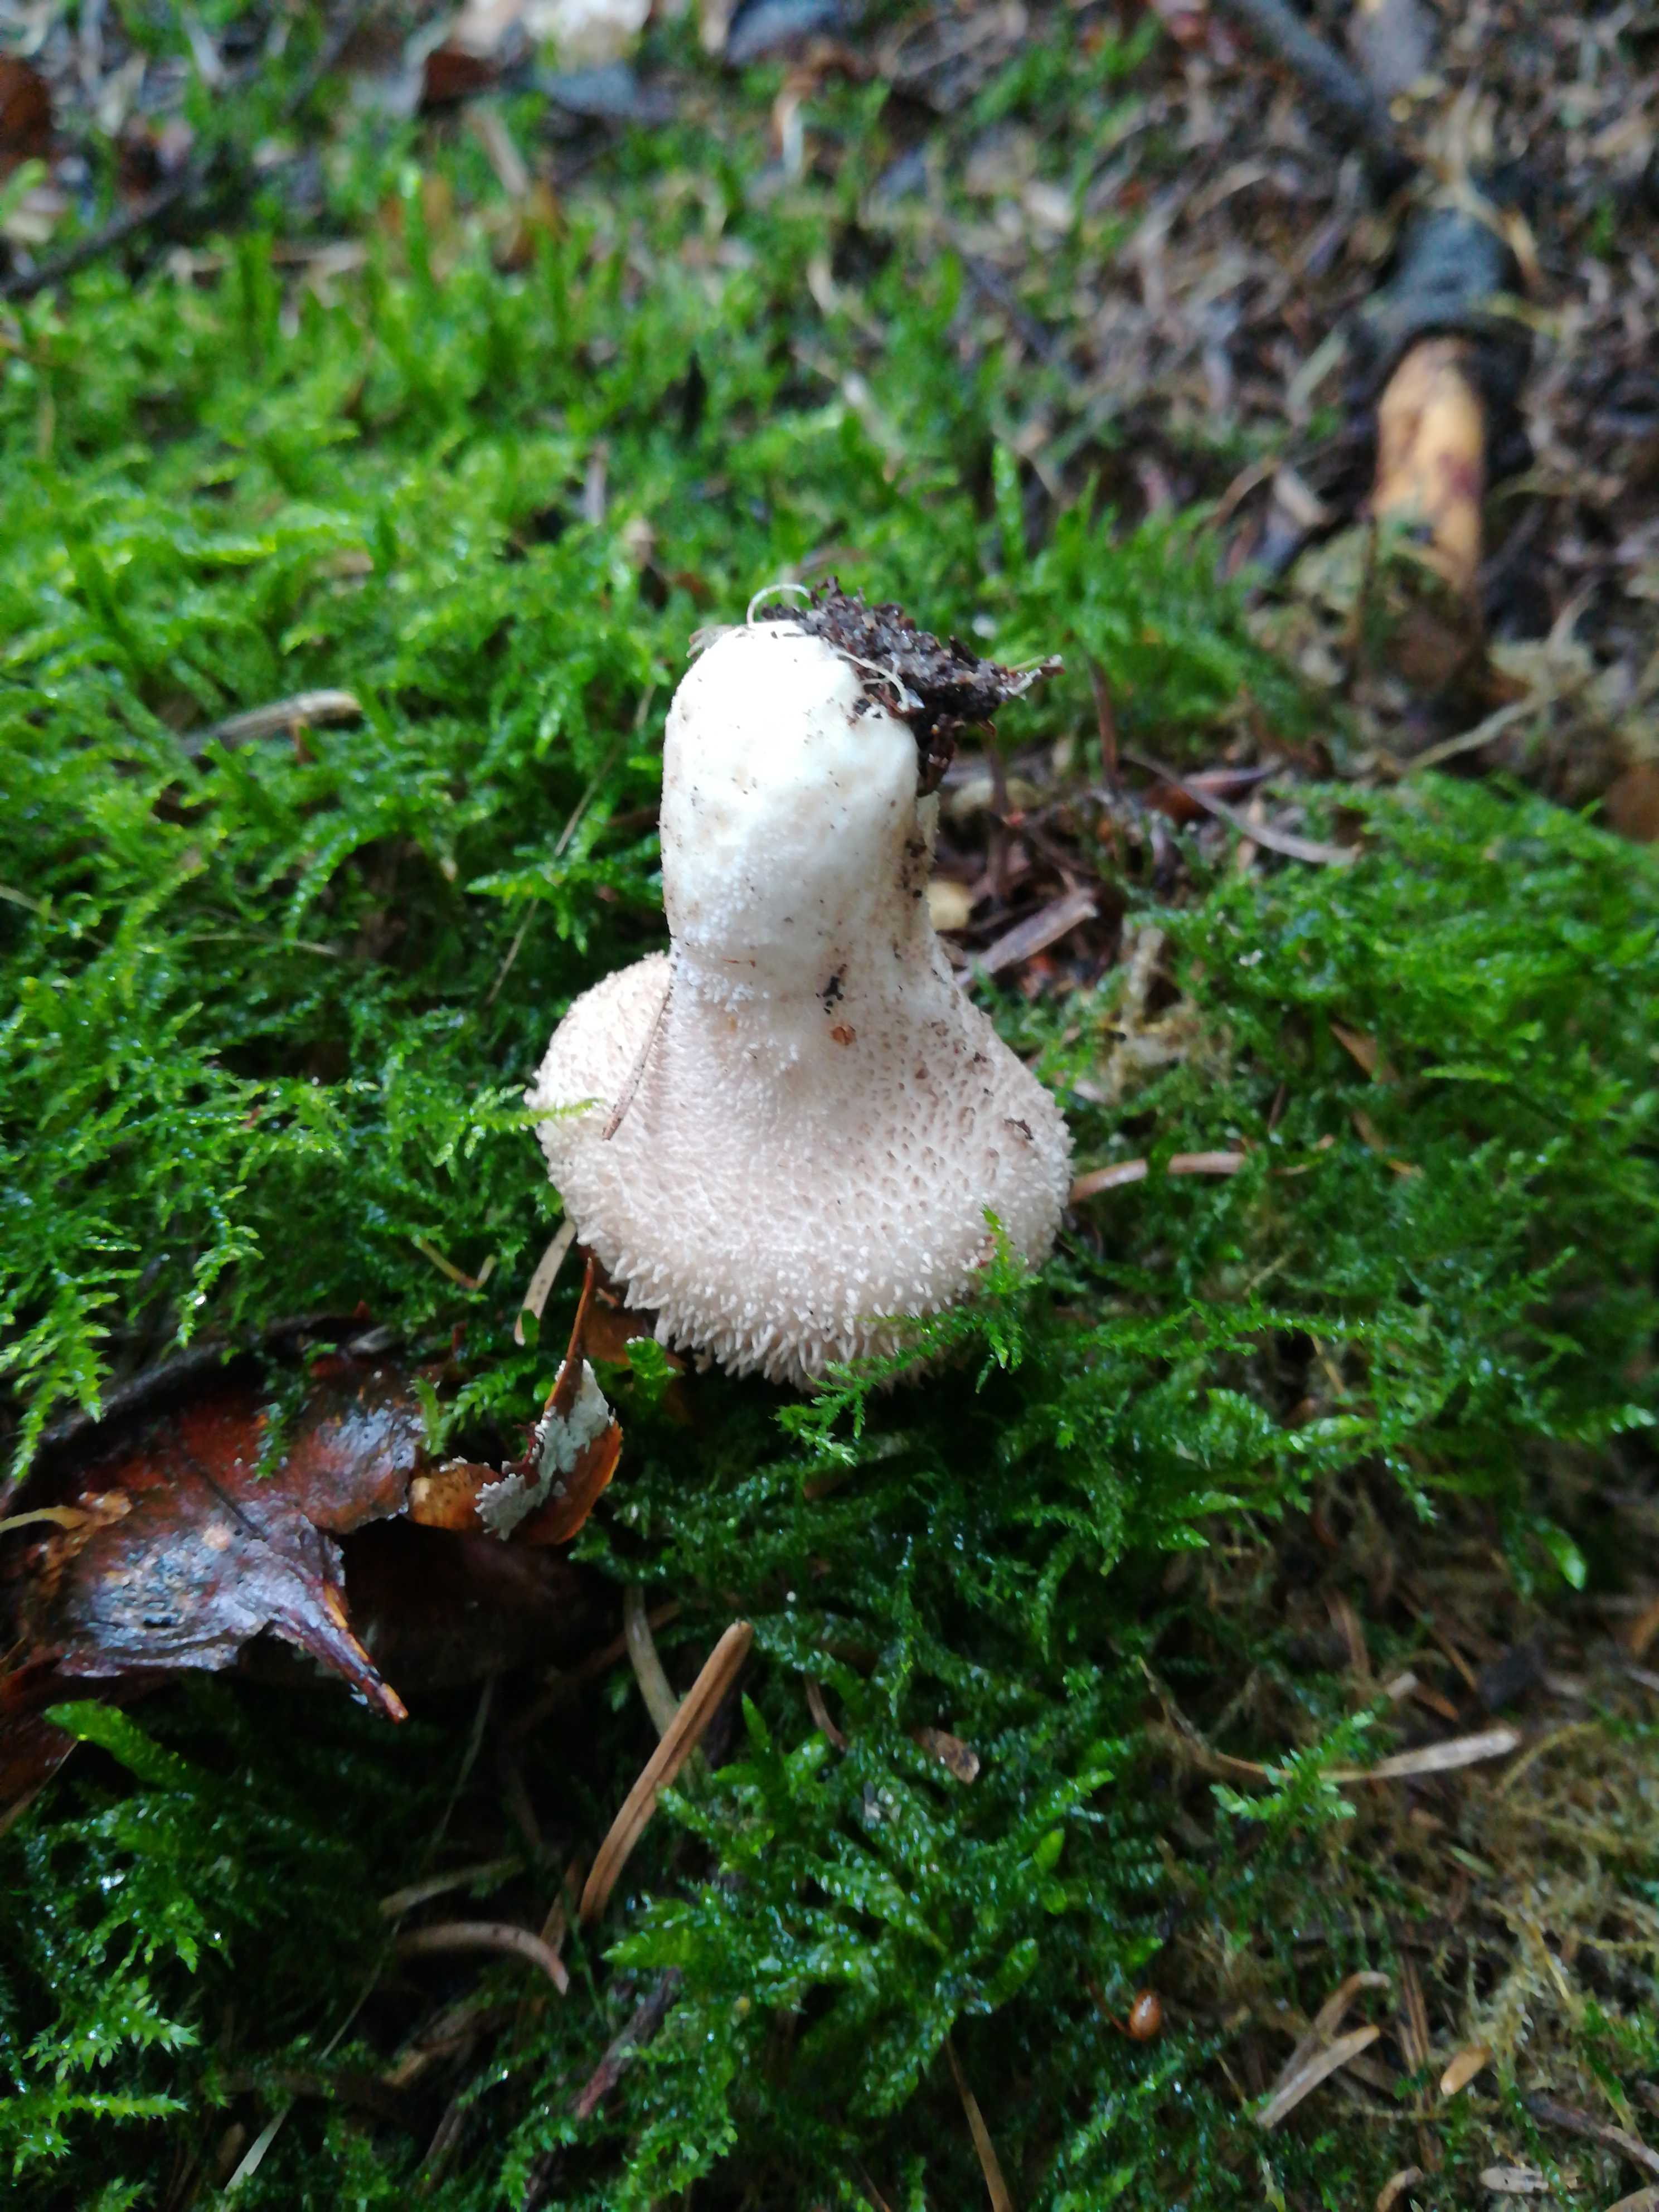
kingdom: Fungi
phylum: Basidiomycota
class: Agaricomycetes
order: Agaricales
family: Lycoperdaceae
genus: Lycoperdon
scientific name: Lycoperdon perlatum
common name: krystal-støvbold
